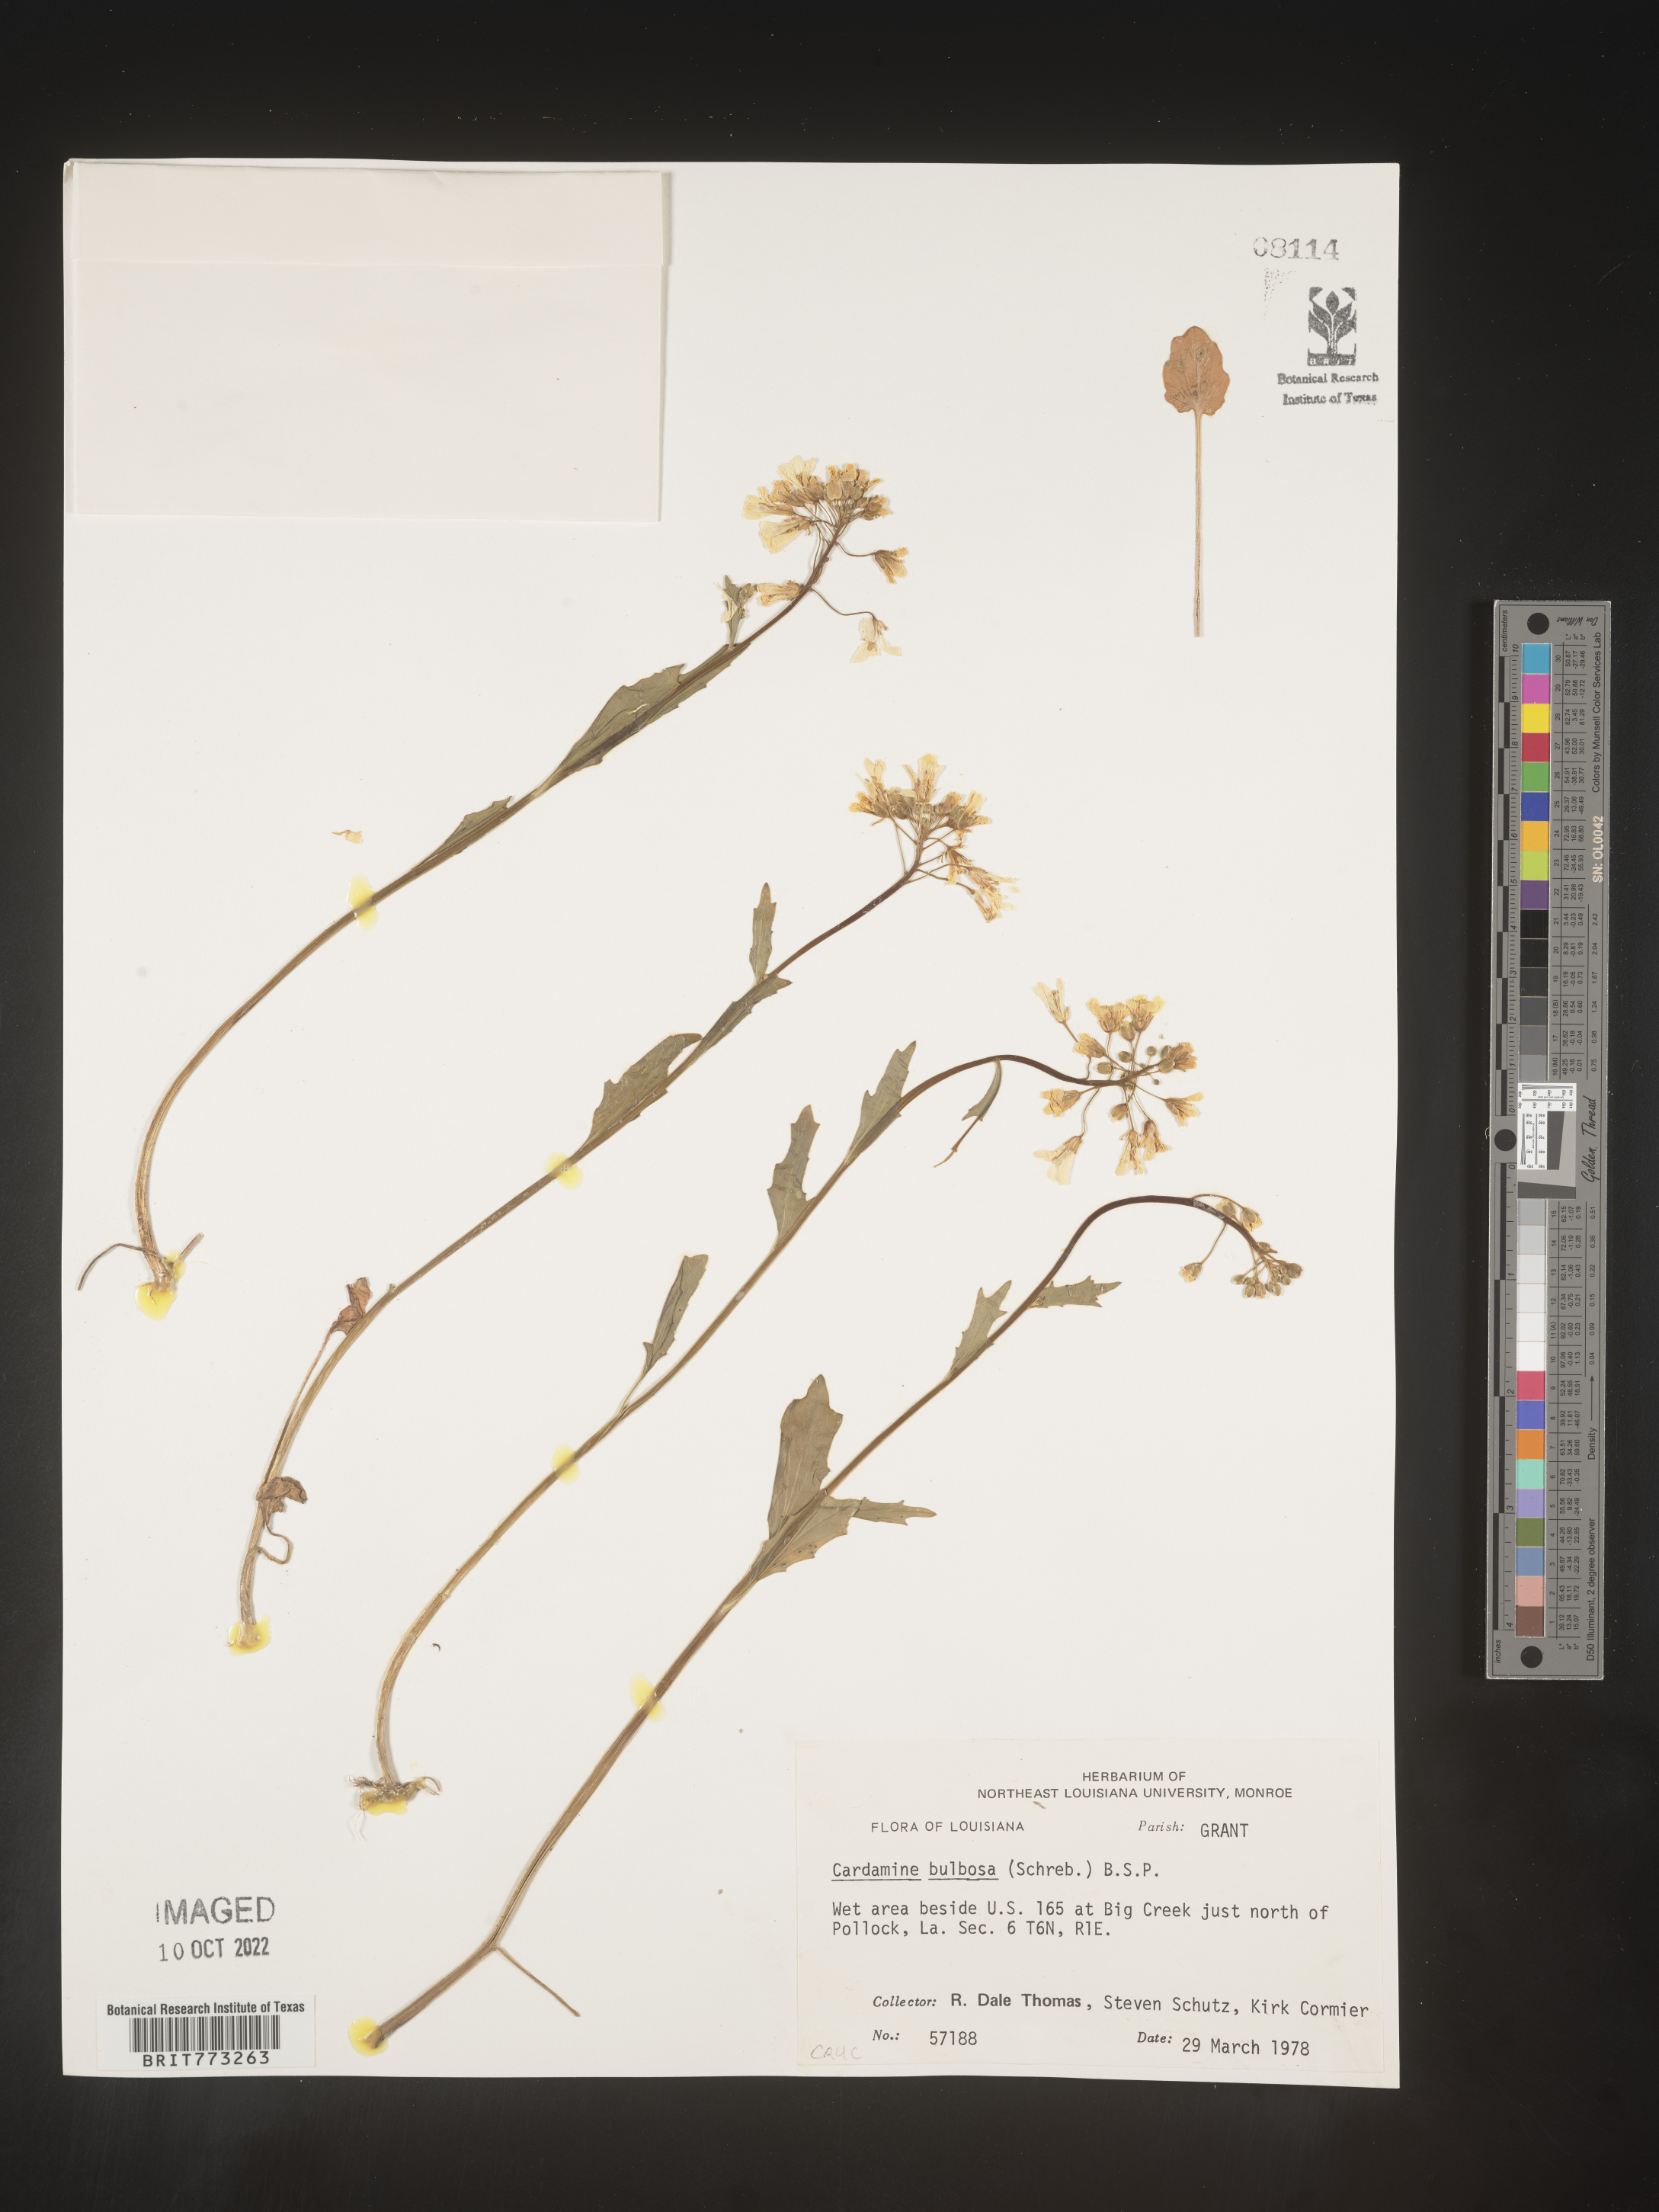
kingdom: Plantae
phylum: Tracheophyta
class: Magnoliopsida
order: Brassicales
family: Brassicaceae
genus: Cardamine
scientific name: Cardamine bulbosa
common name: Spring cress
